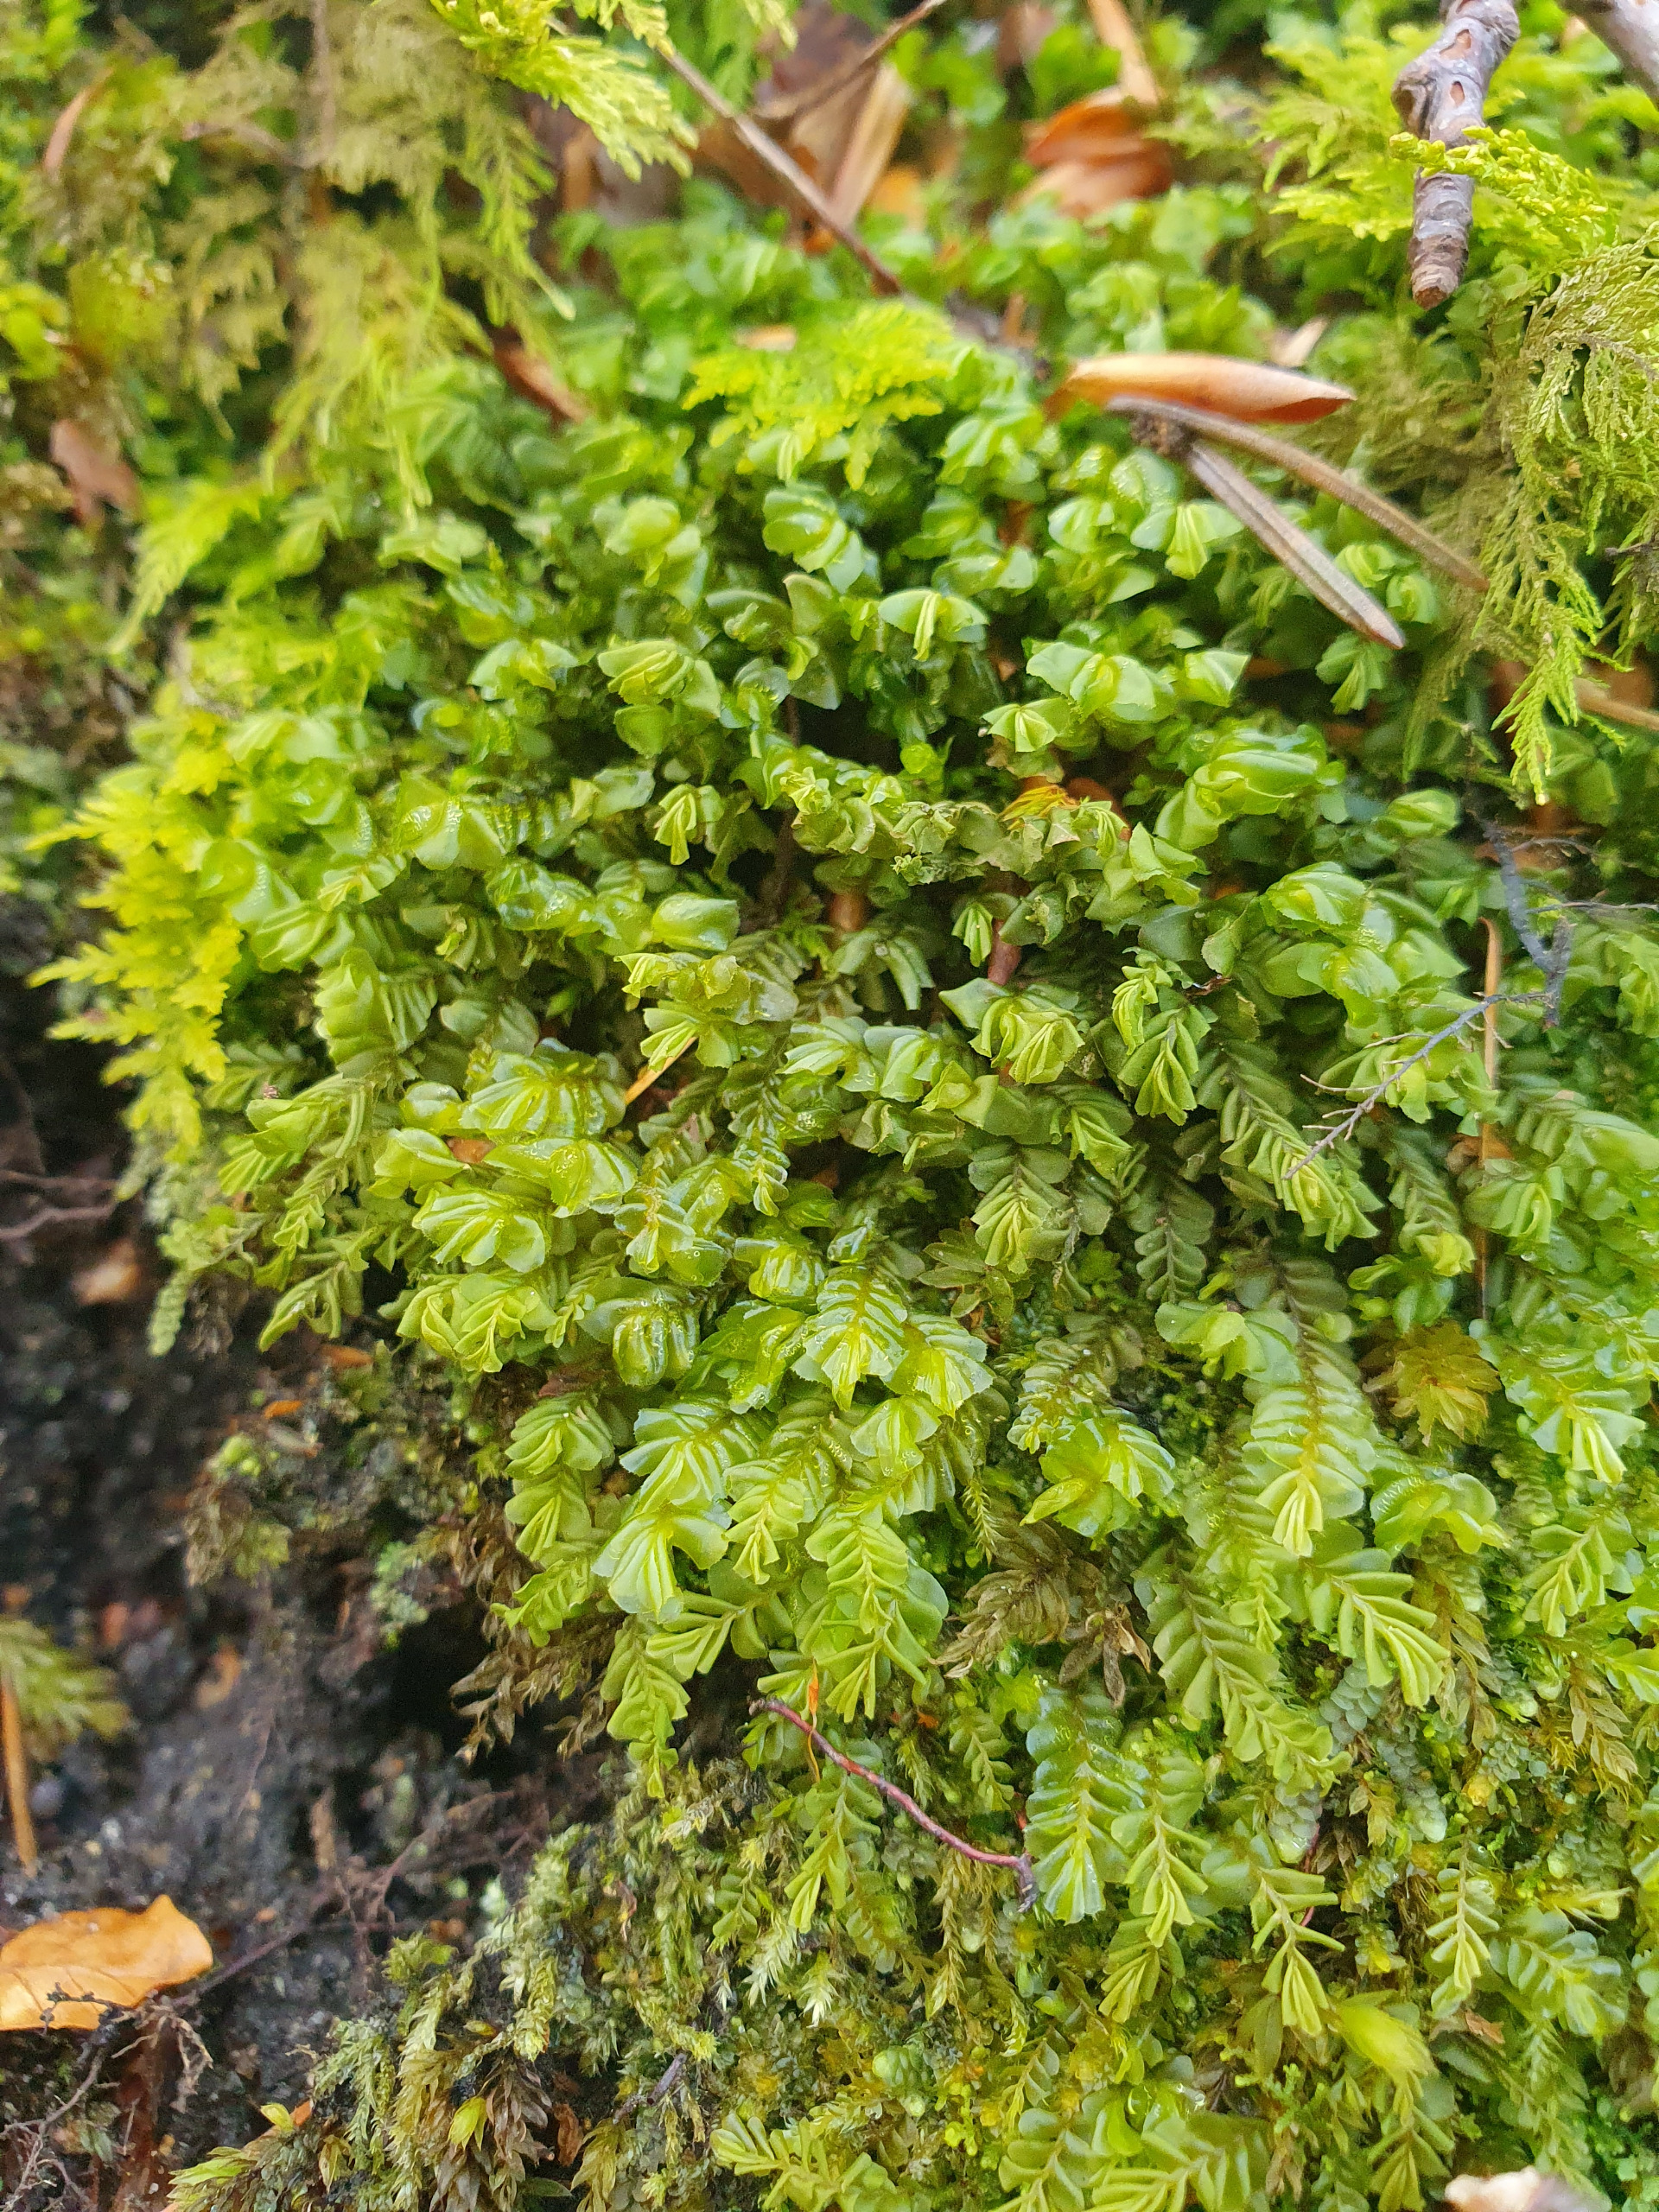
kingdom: Plantae
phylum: Marchantiophyta
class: Jungermanniopsida
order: Jungermanniales
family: Plagiochilaceae
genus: Plagiochila
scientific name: Plagiochila asplenioides
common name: Radeløv-hindeblad
